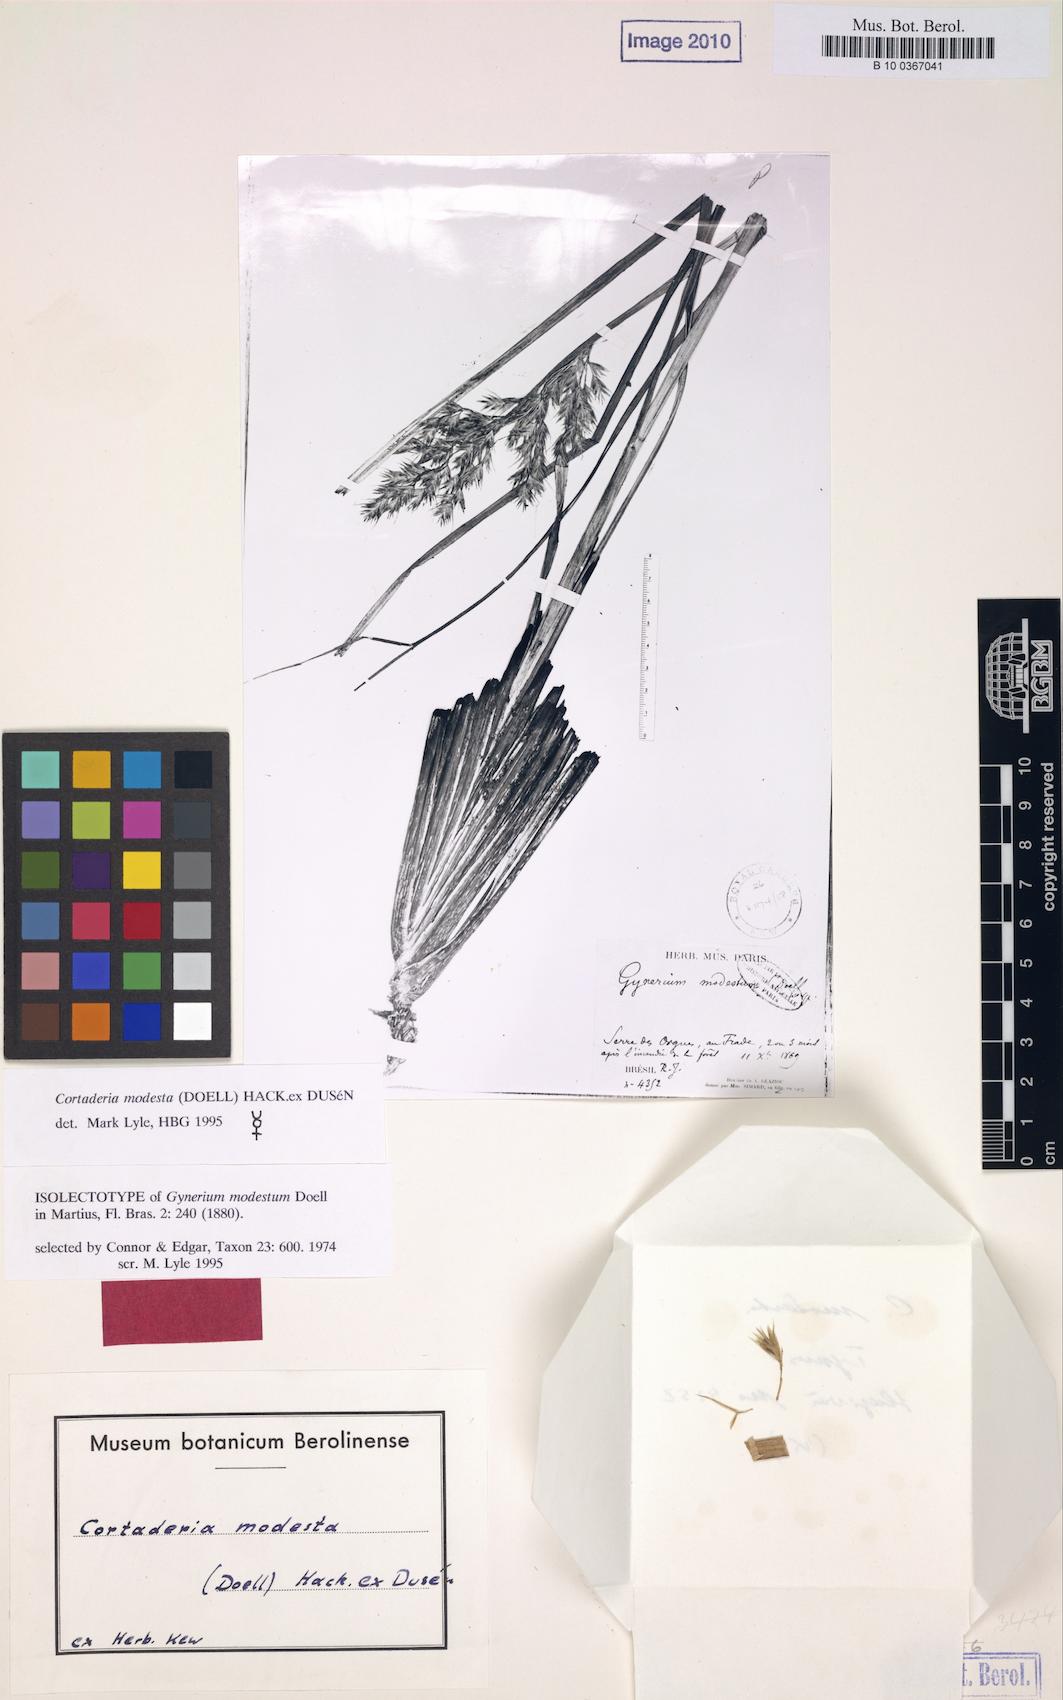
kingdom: Plantae
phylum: Tracheophyta
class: Liliopsida
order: Poales
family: Poaceae
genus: Cortaderia
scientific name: Cortaderia modesta
